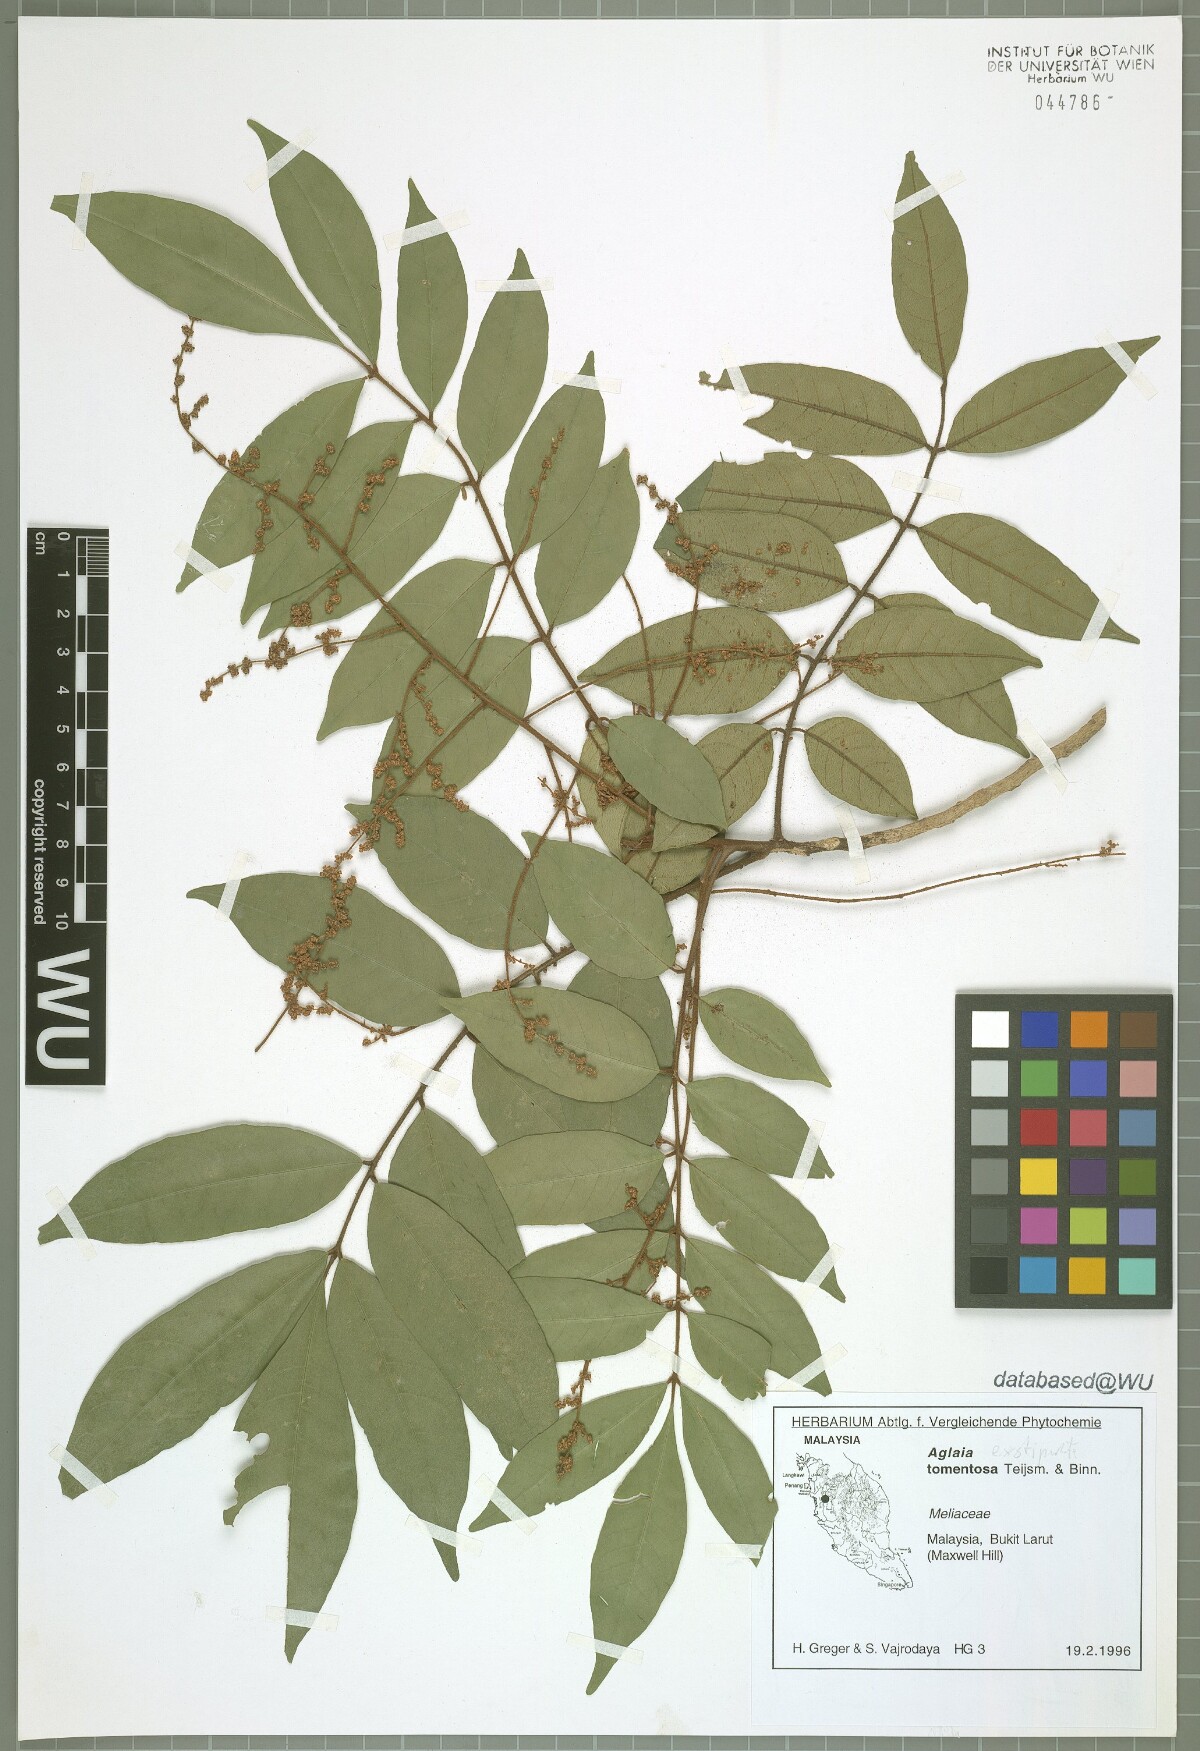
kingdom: Plantae
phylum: Tracheophyta
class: Magnoliopsida
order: Sapindales
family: Meliaceae
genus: Aglaia
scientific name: Aglaia exstipulata
